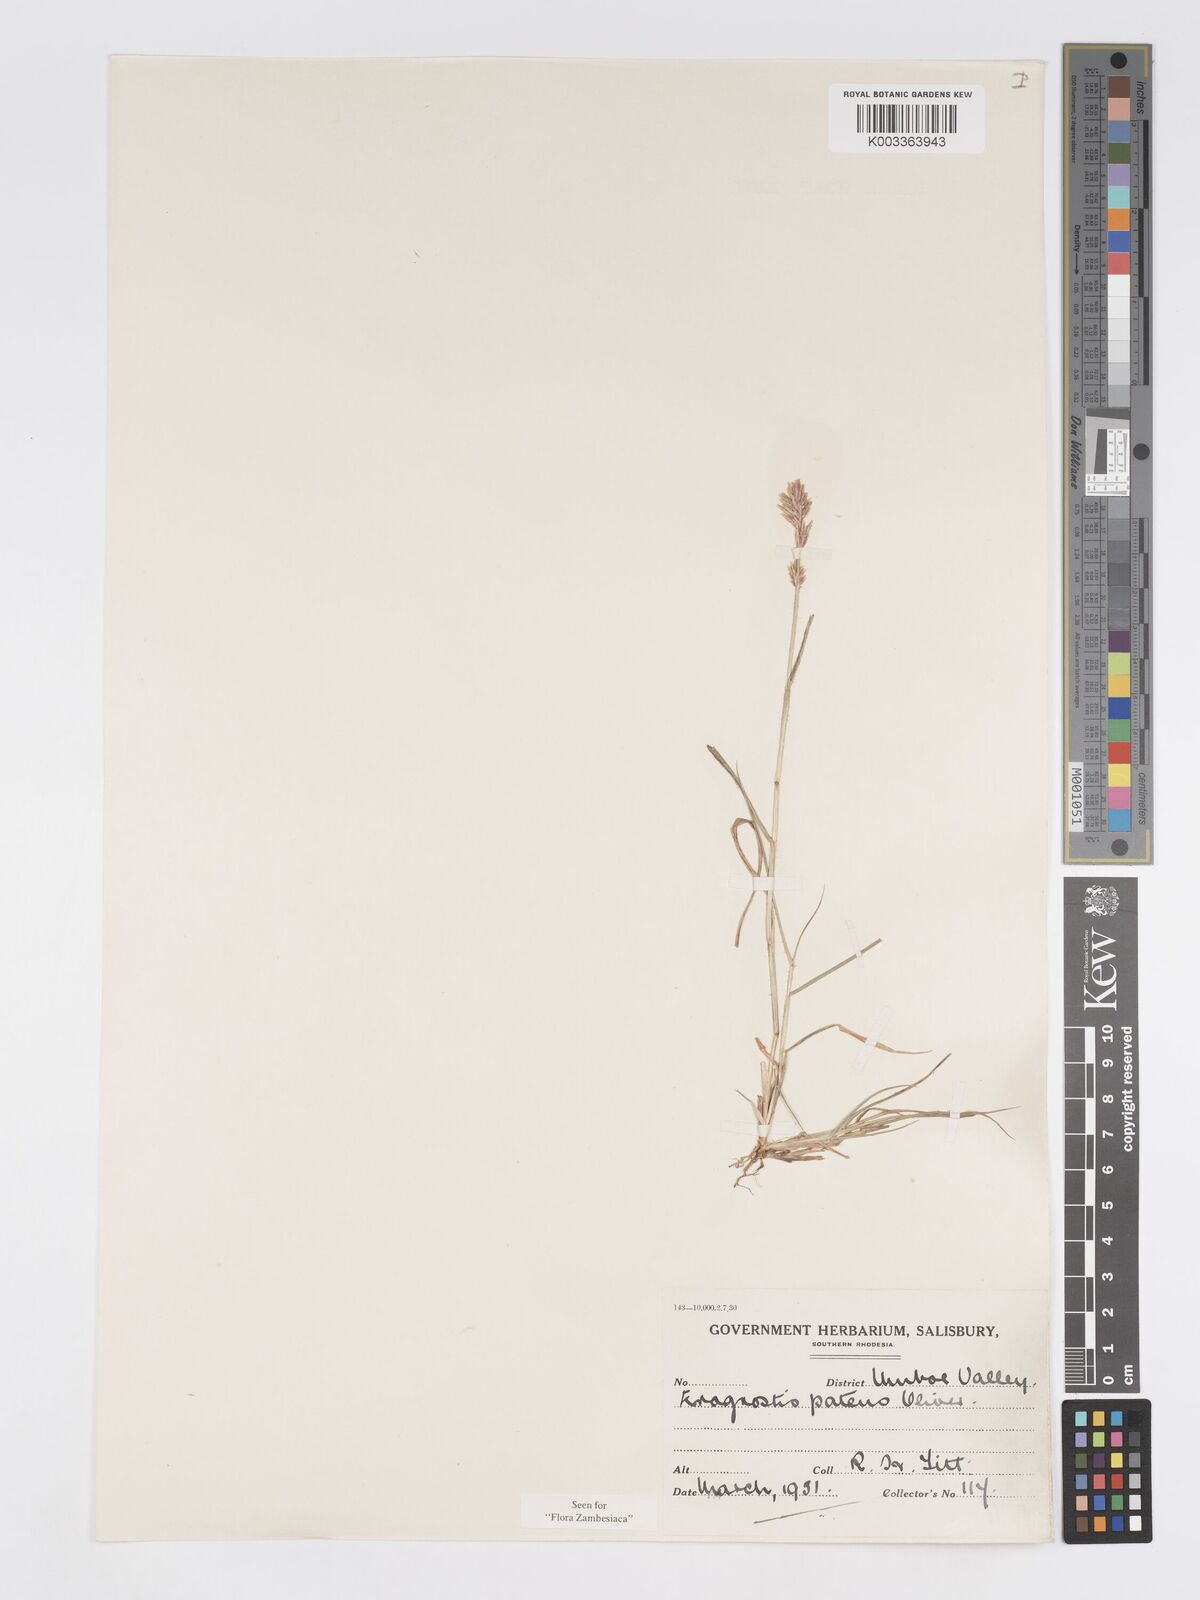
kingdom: Plantae
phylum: Tracheophyta
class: Liliopsida
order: Poales
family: Poaceae
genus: Eragrostis
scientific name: Eragrostis patens
